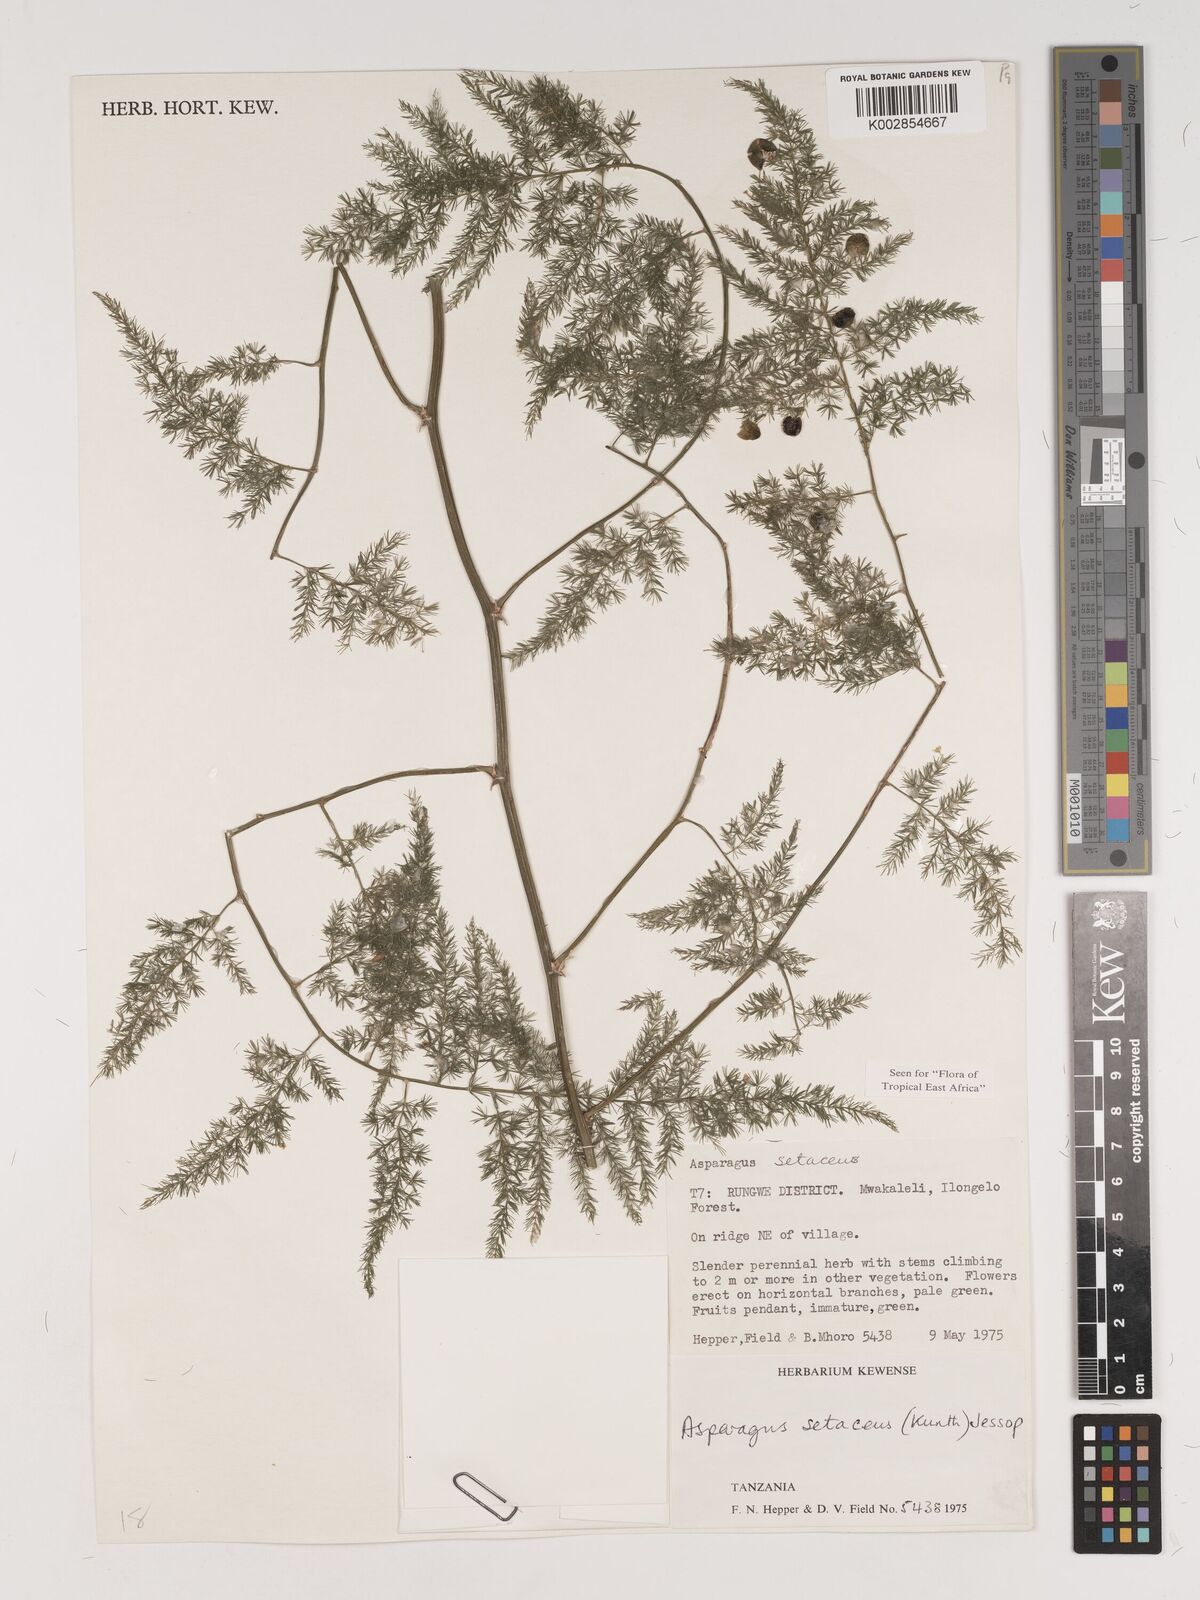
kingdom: Plantae
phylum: Tracheophyta
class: Liliopsida
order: Asparagales
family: Asparagaceae
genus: Asparagus
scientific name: Asparagus setaceus
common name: Common asparagus fern
